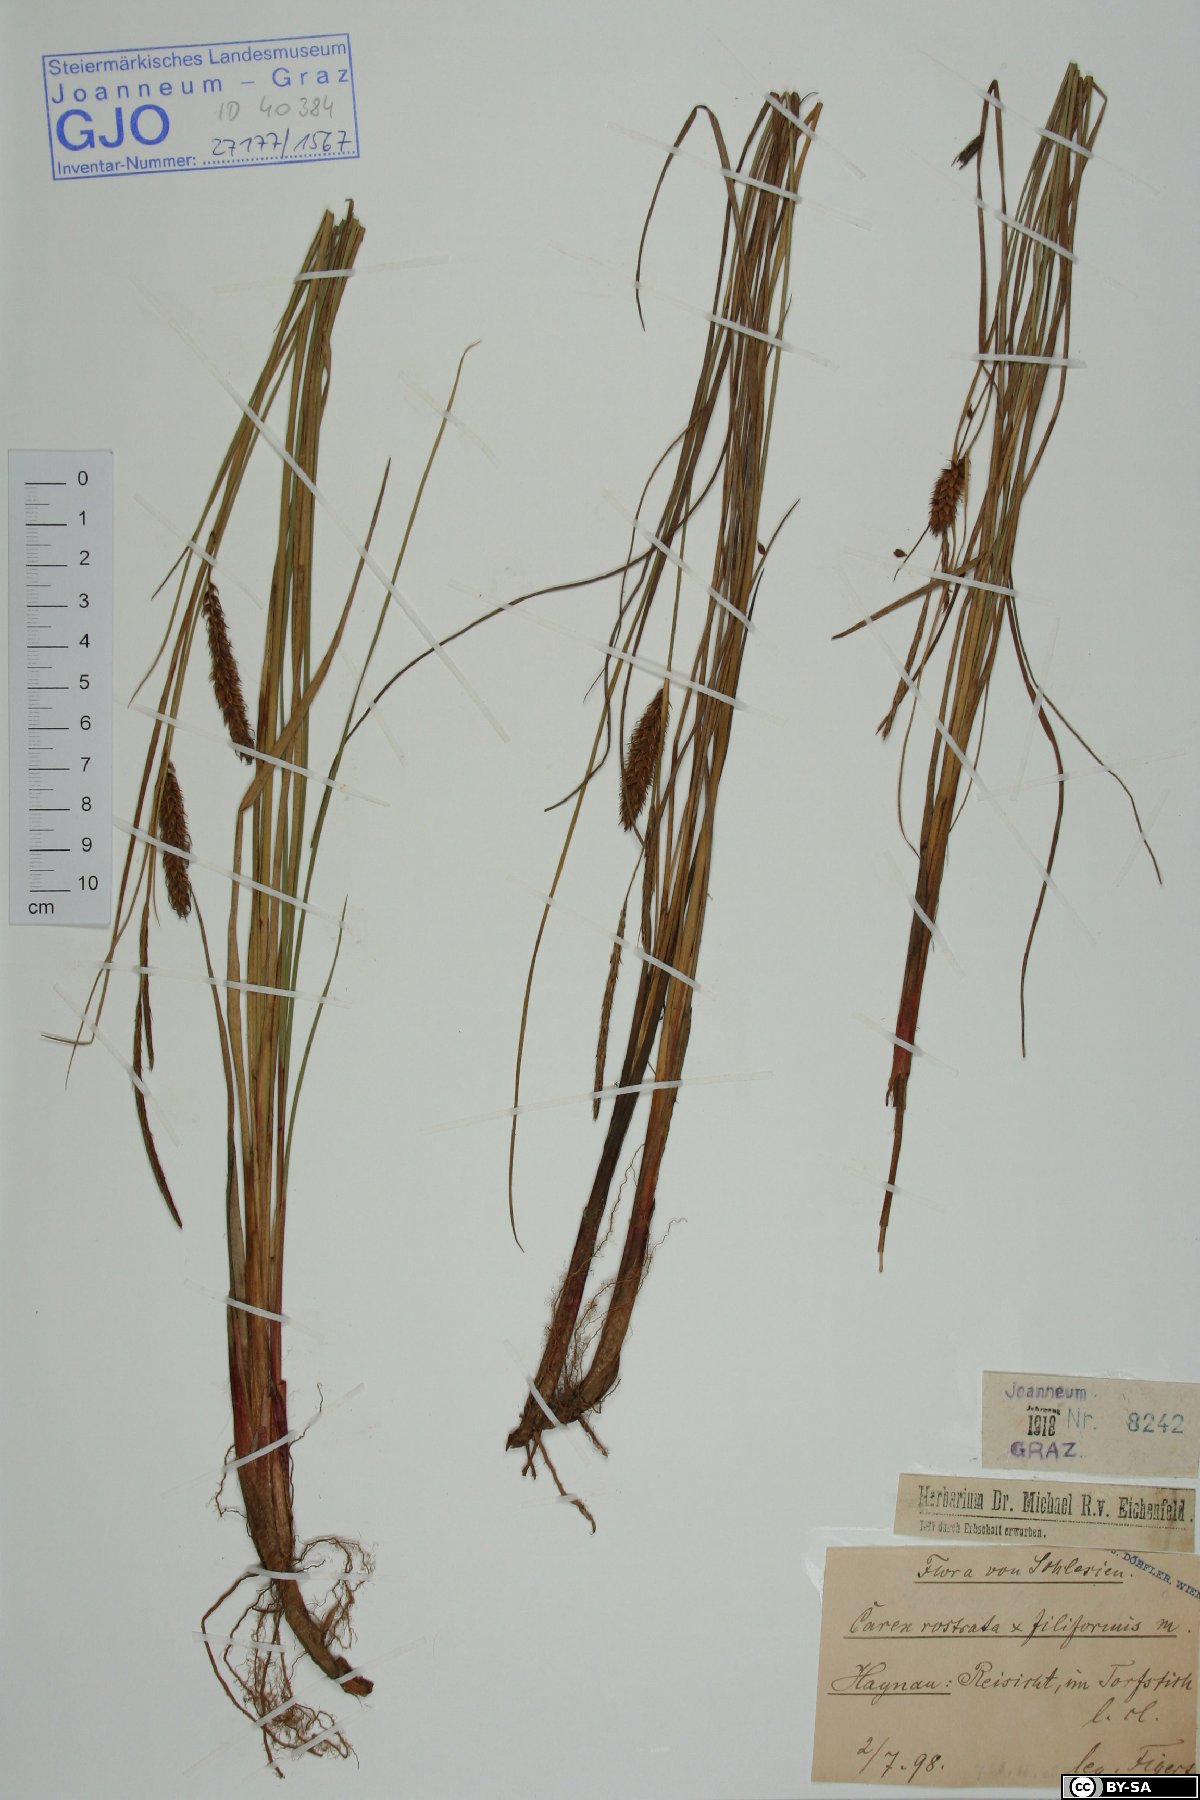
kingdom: Plantae
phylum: Tracheophyta
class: Liliopsida
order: Poales
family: Cyperaceae
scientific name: Cyperaceae
